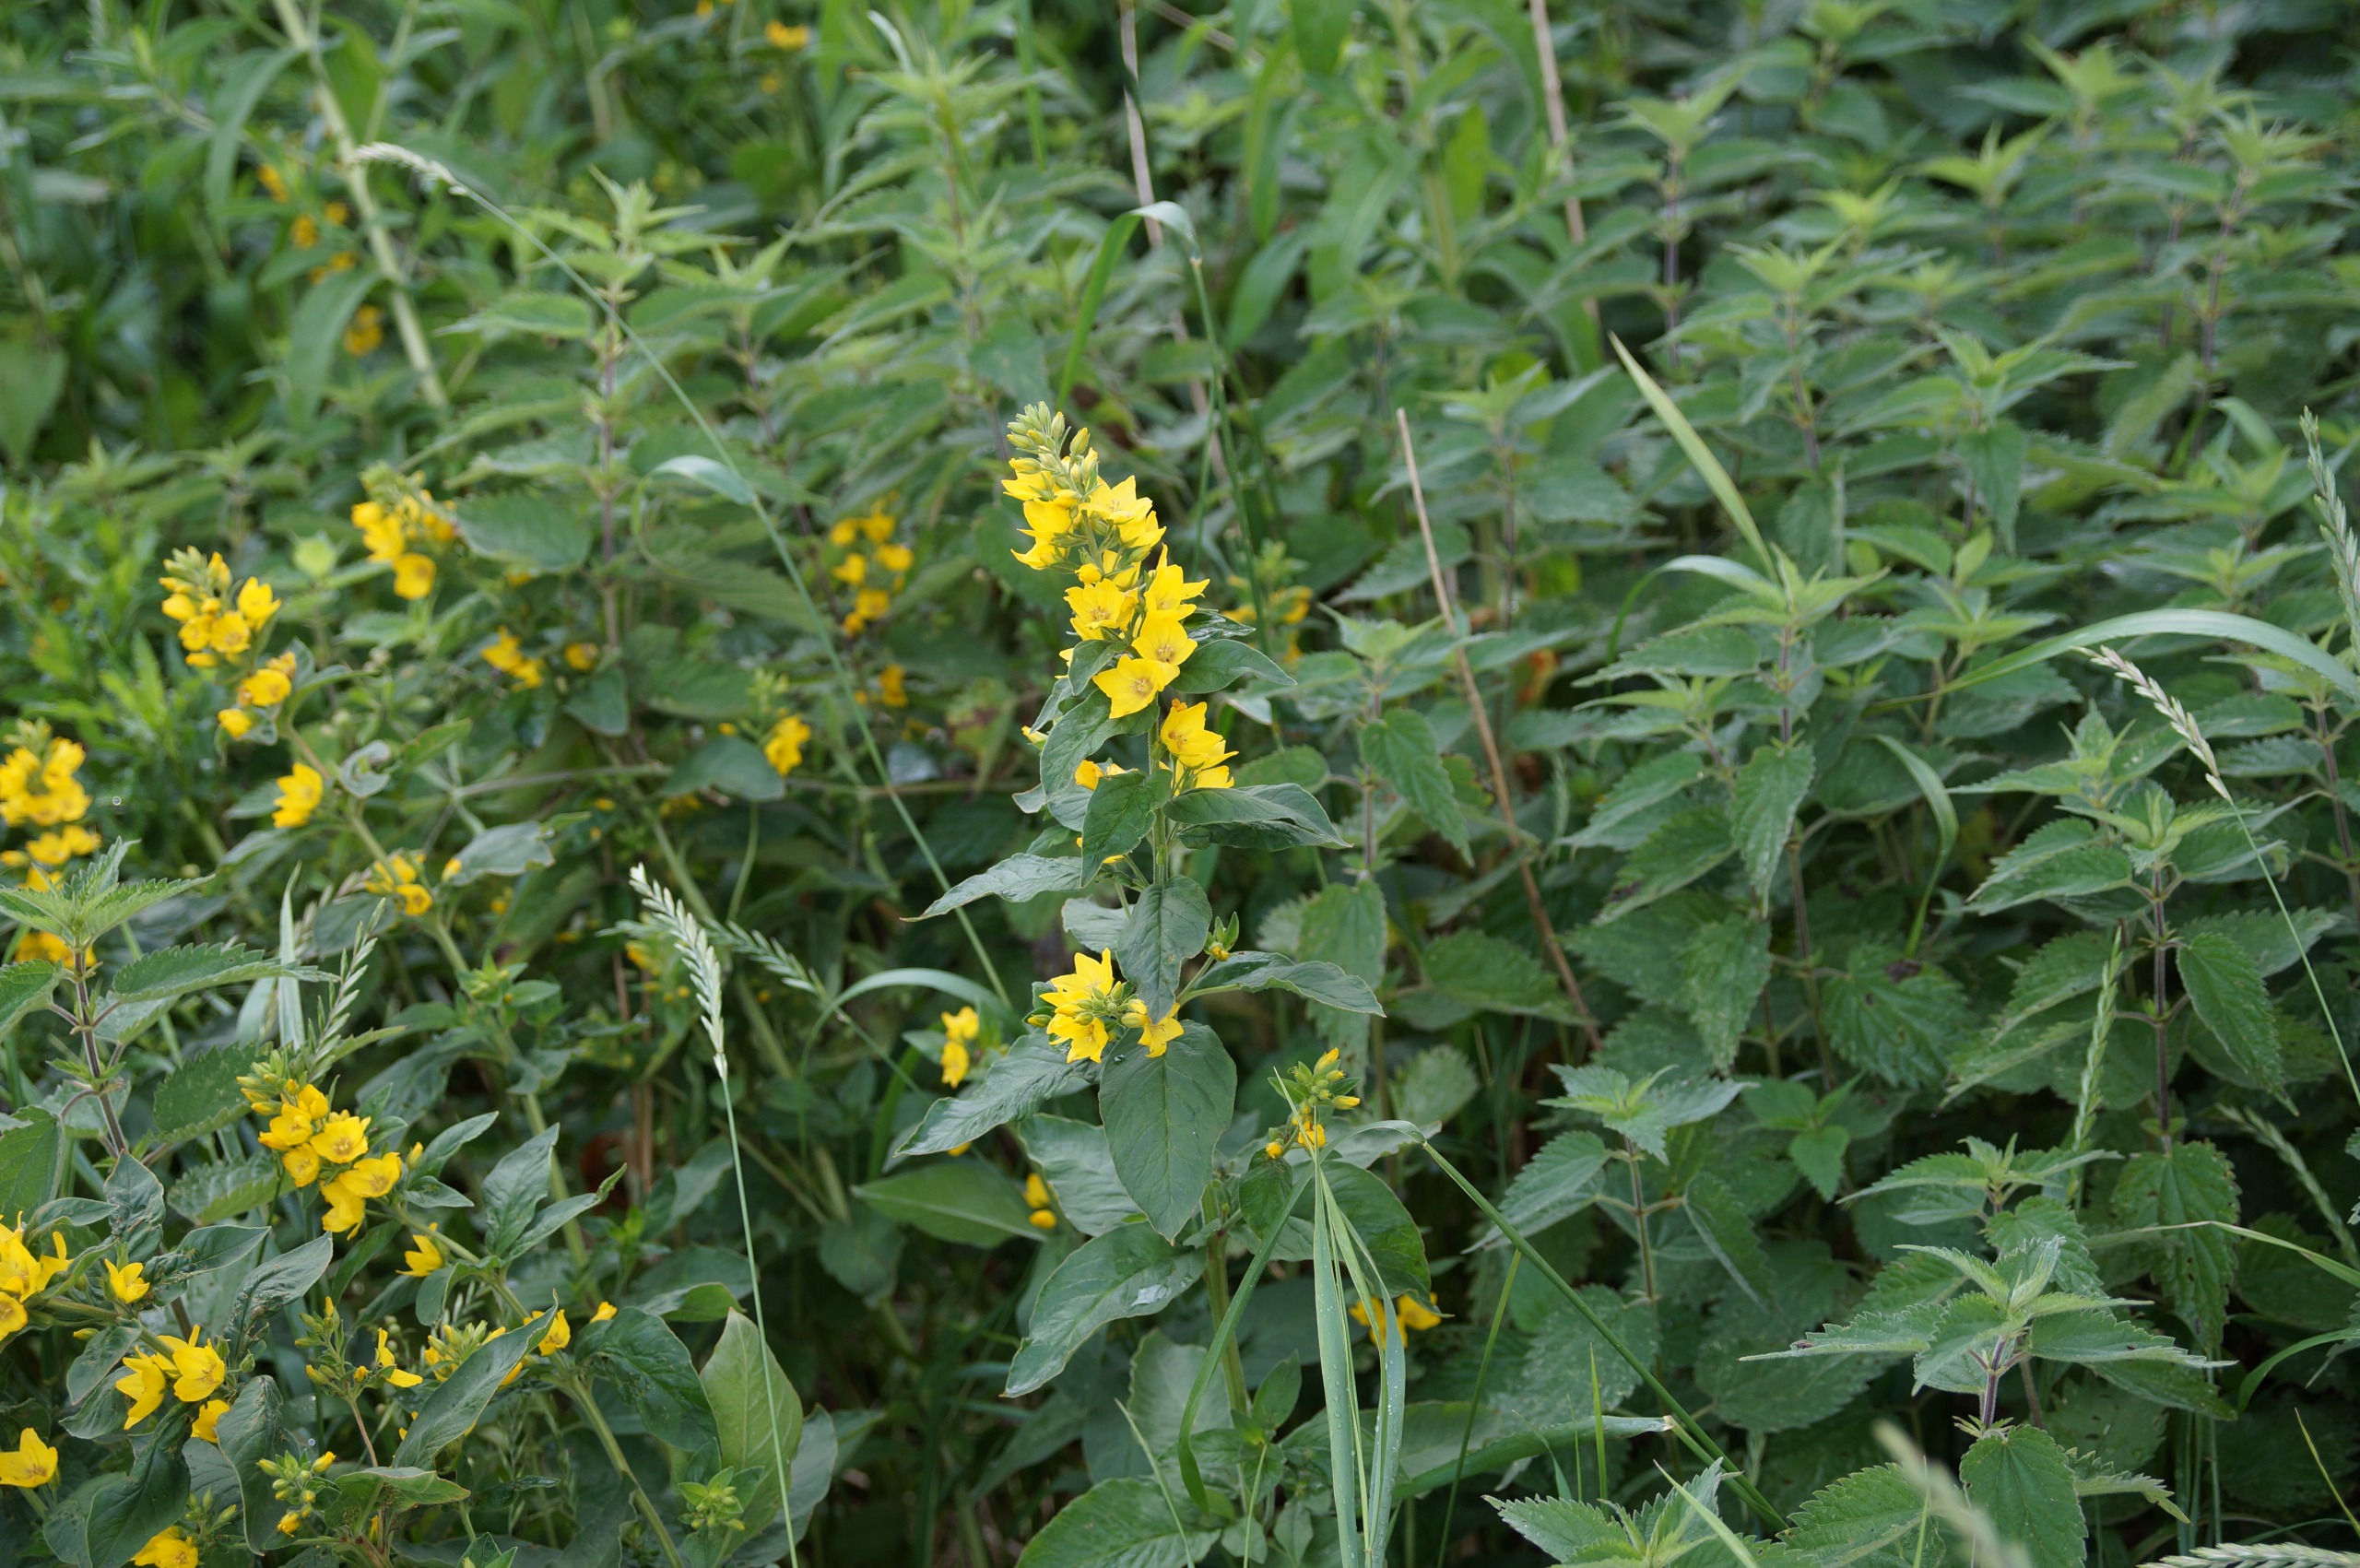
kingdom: Plantae
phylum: Tracheophyta
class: Magnoliopsida
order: Ericales
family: Primulaceae
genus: Lysimachia
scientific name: Lysimachia punctata
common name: Prikbladet fredløs
